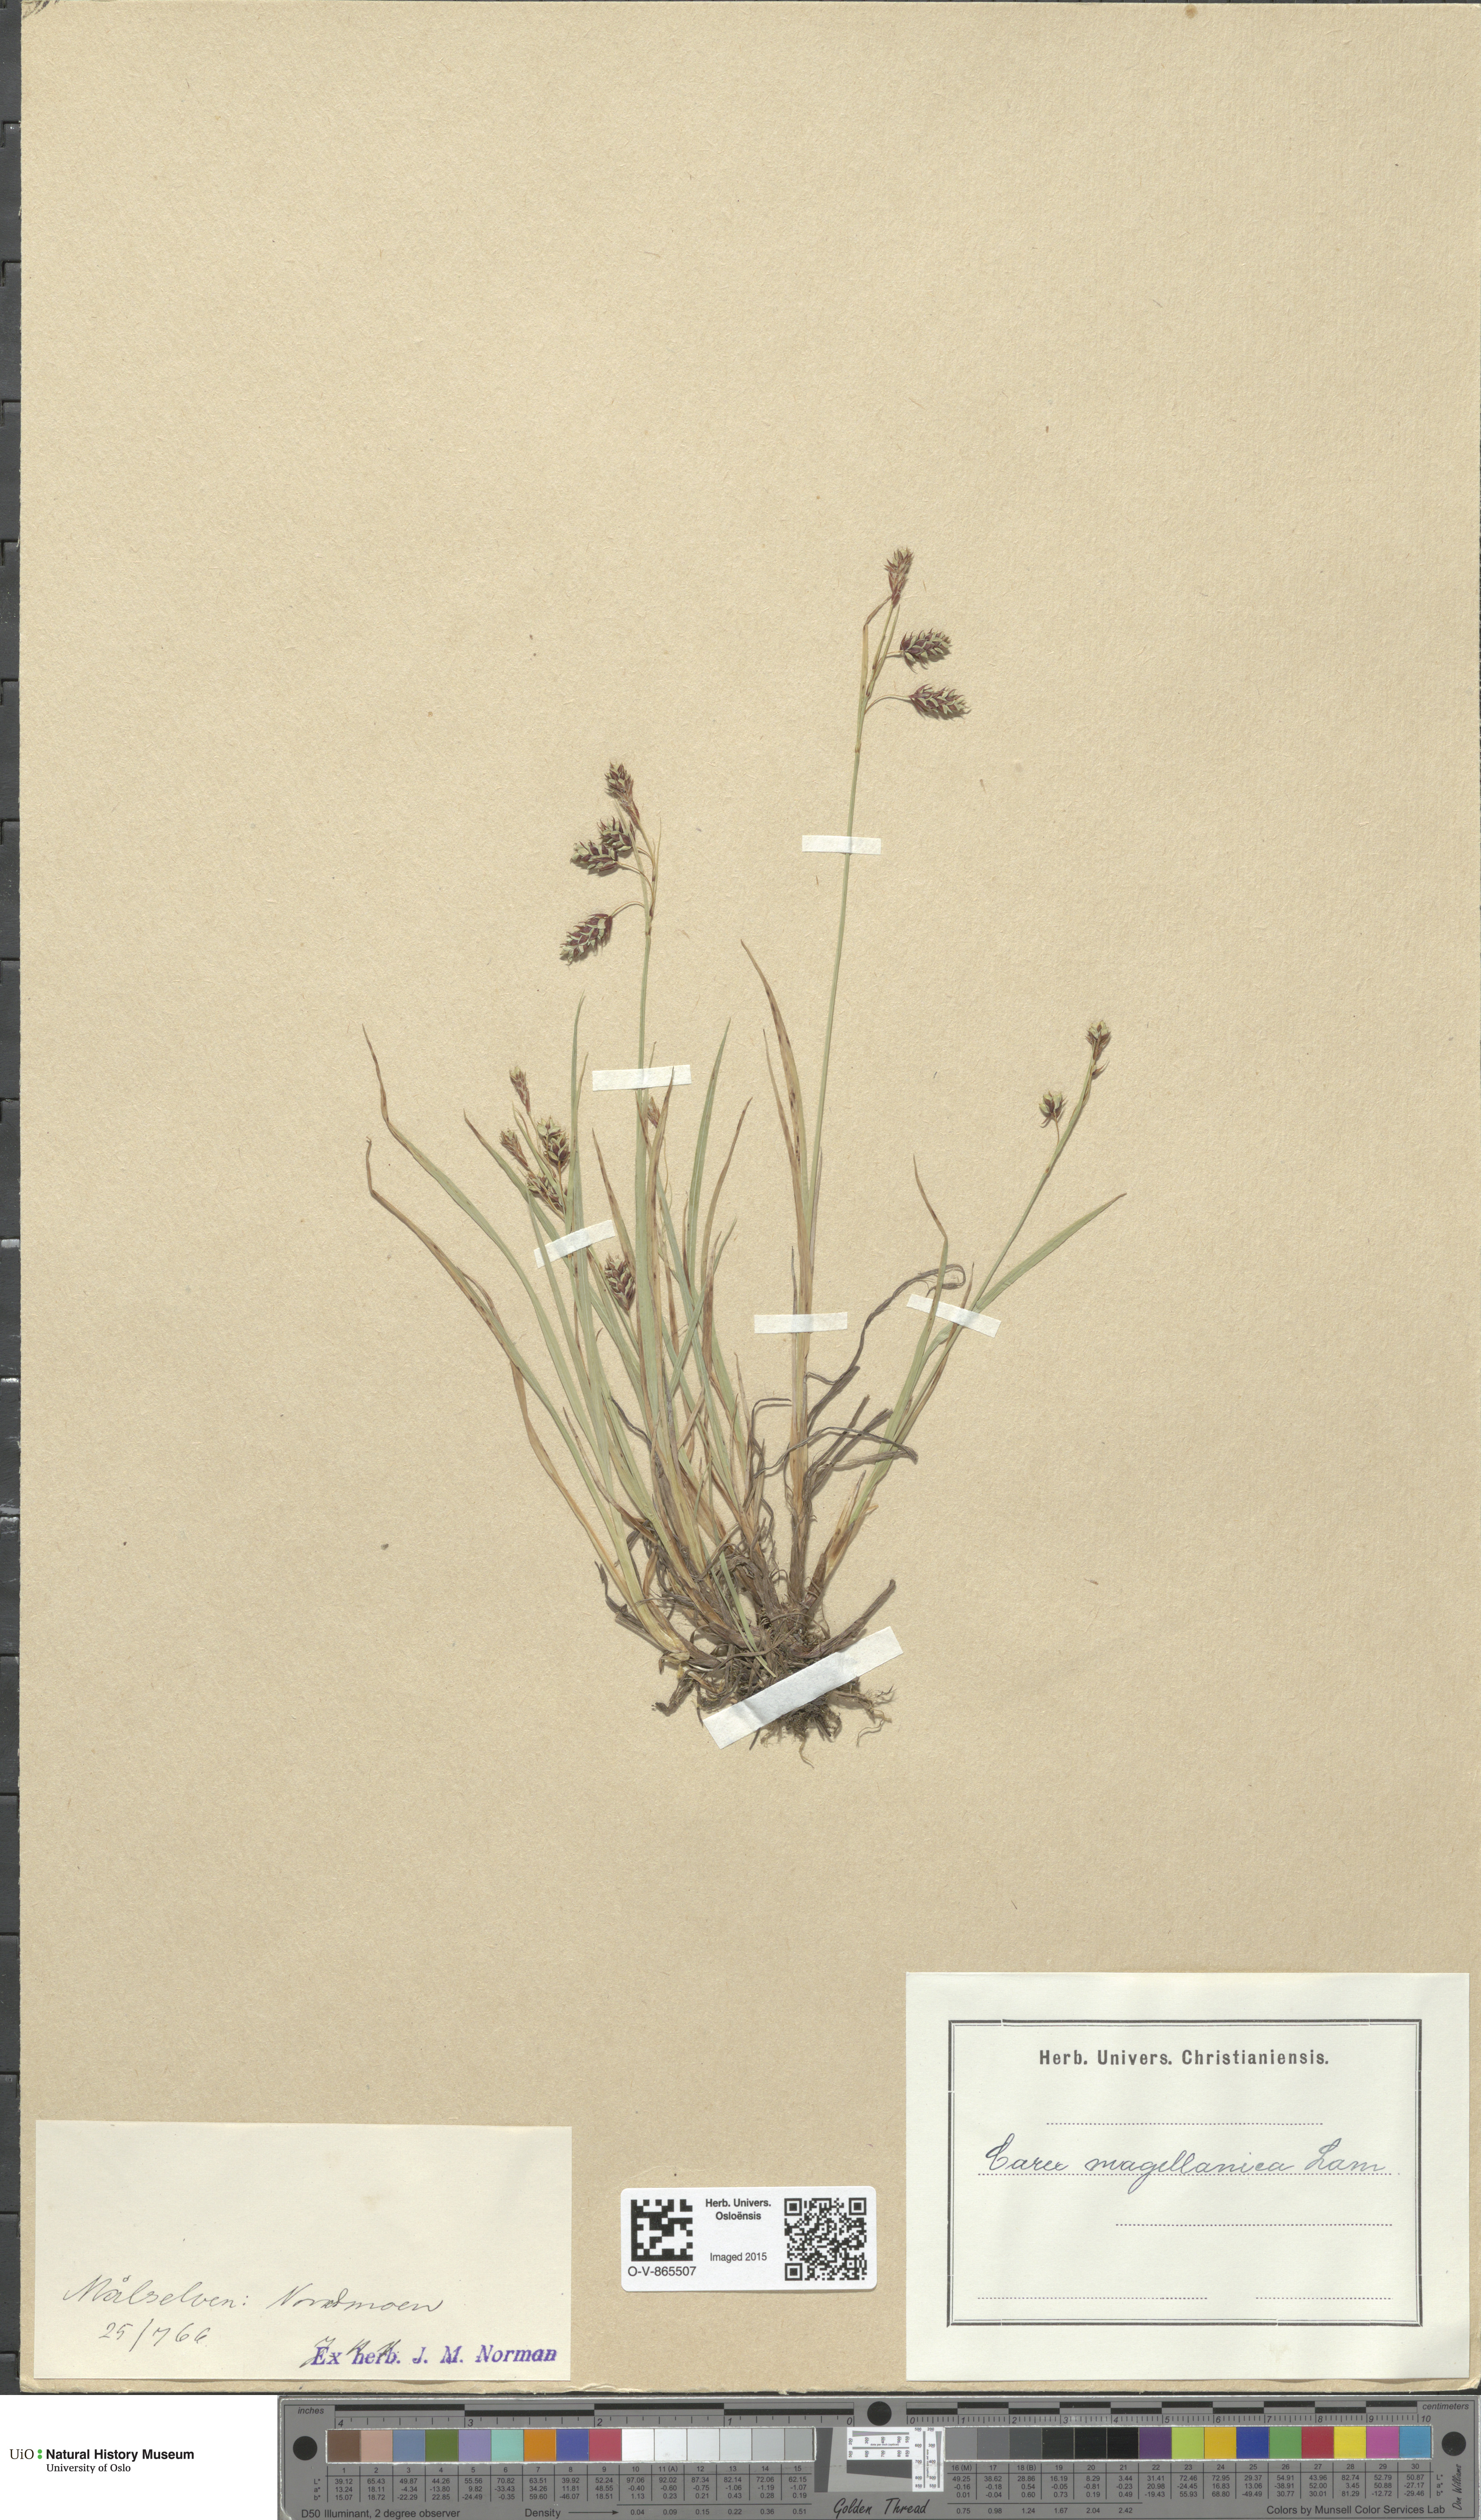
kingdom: Plantae
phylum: Tracheophyta
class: Liliopsida
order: Poales
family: Cyperaceae
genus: Carex
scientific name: Carex magellanica
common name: Bog sedge
